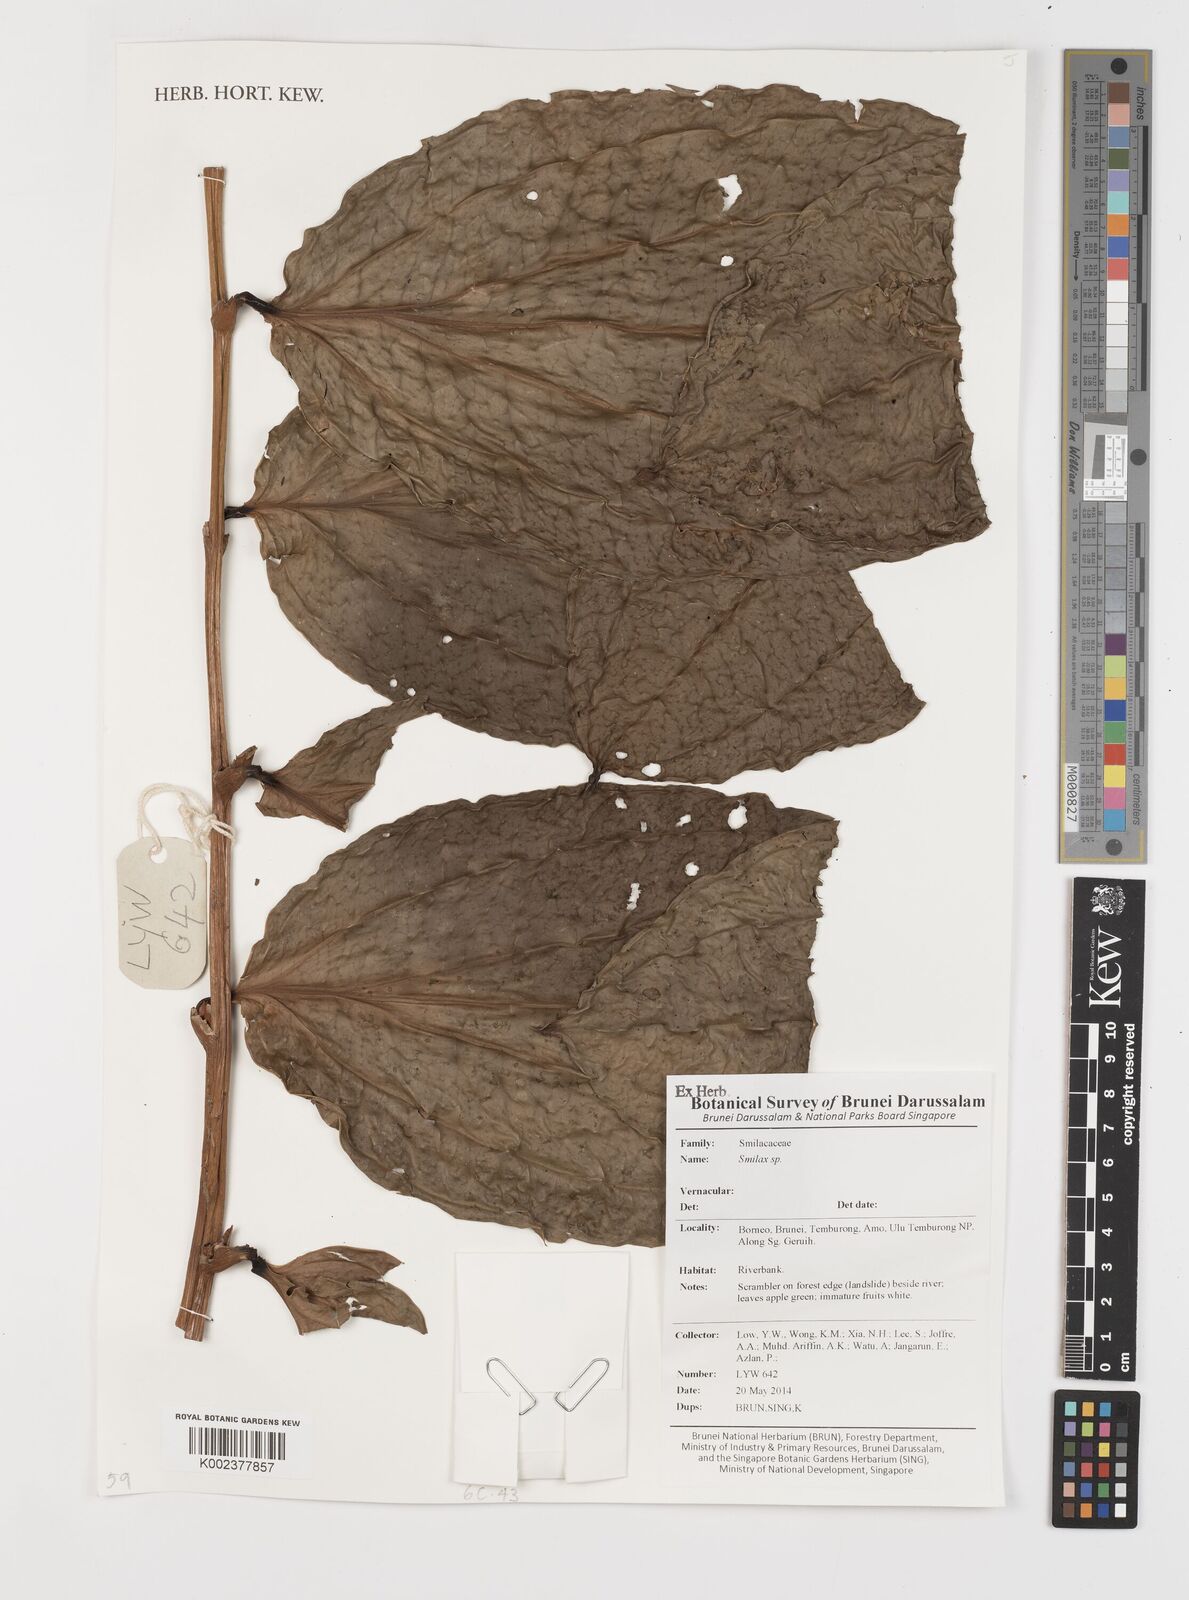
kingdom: Plantae
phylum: Tracheophyta
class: Liliopsida
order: Liliales
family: Smilacaceae
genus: Smilax
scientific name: Smilax
